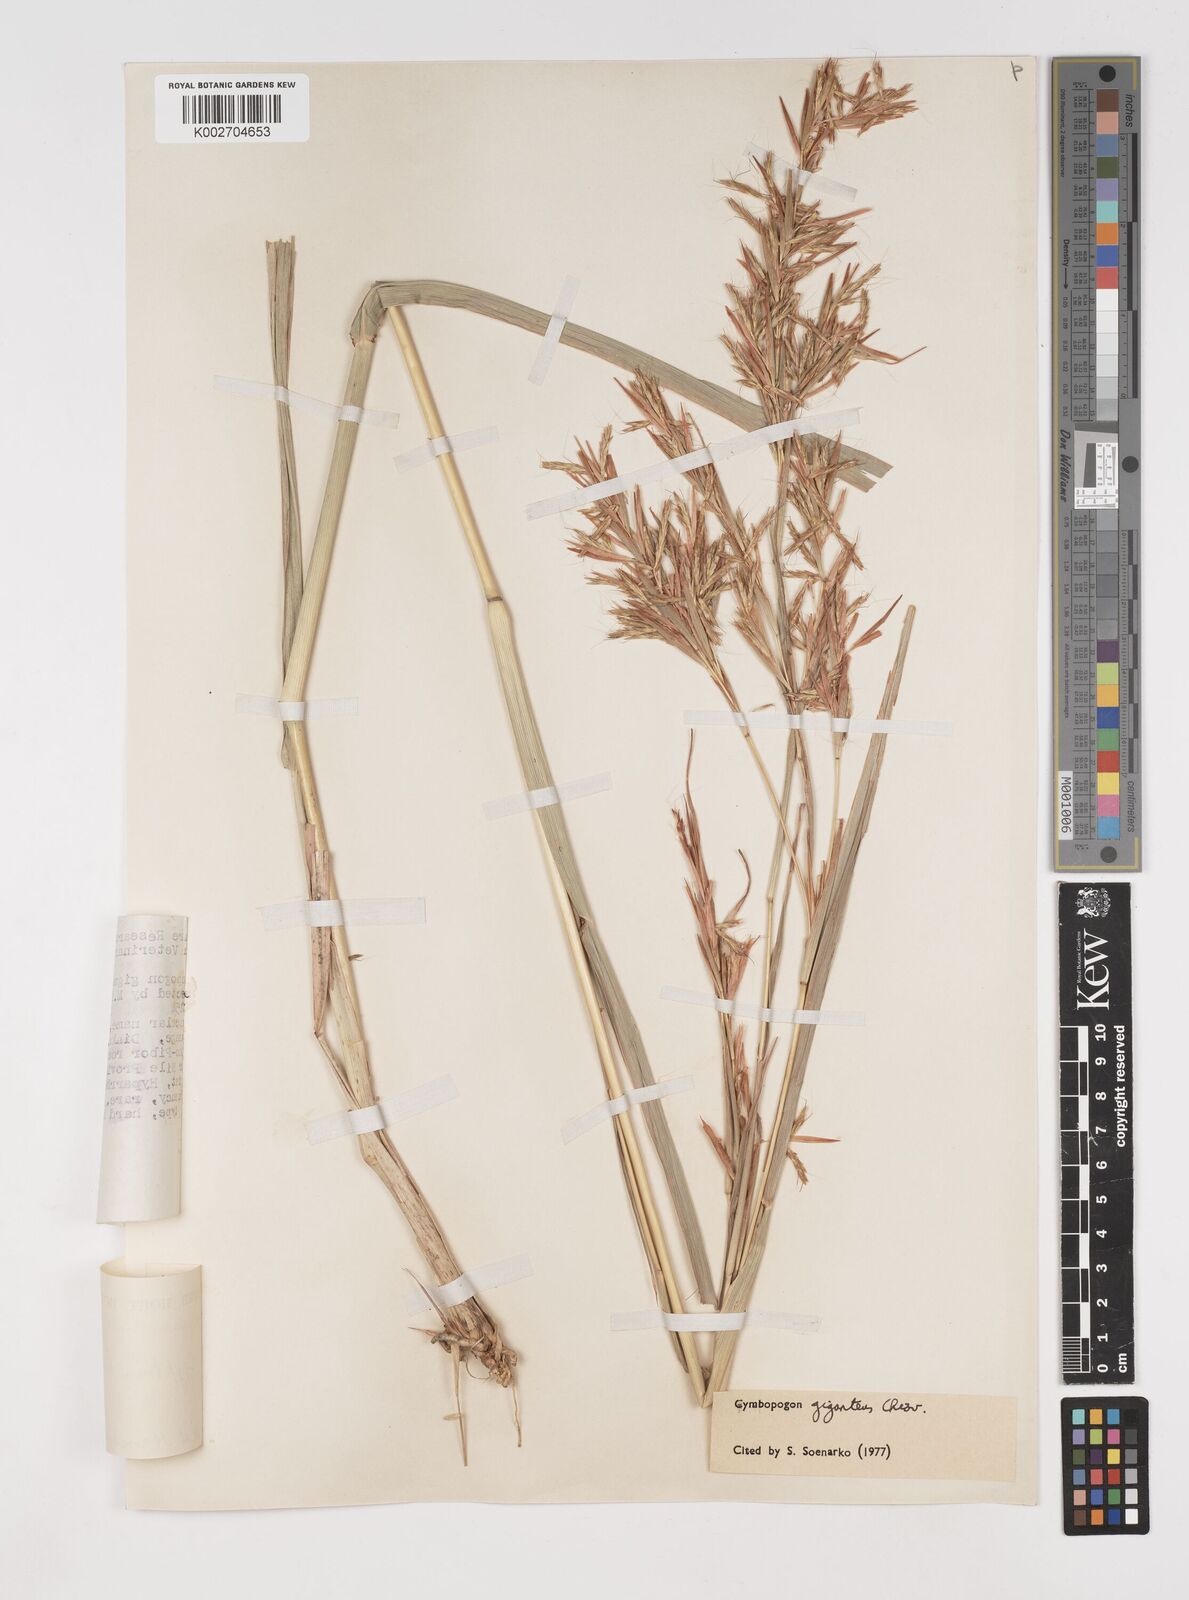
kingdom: Plantae
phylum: Tracheophyta
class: Liliopsida
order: Poales
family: Poaceae
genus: Cymbopogon
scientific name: Cymbopogon giganteus
